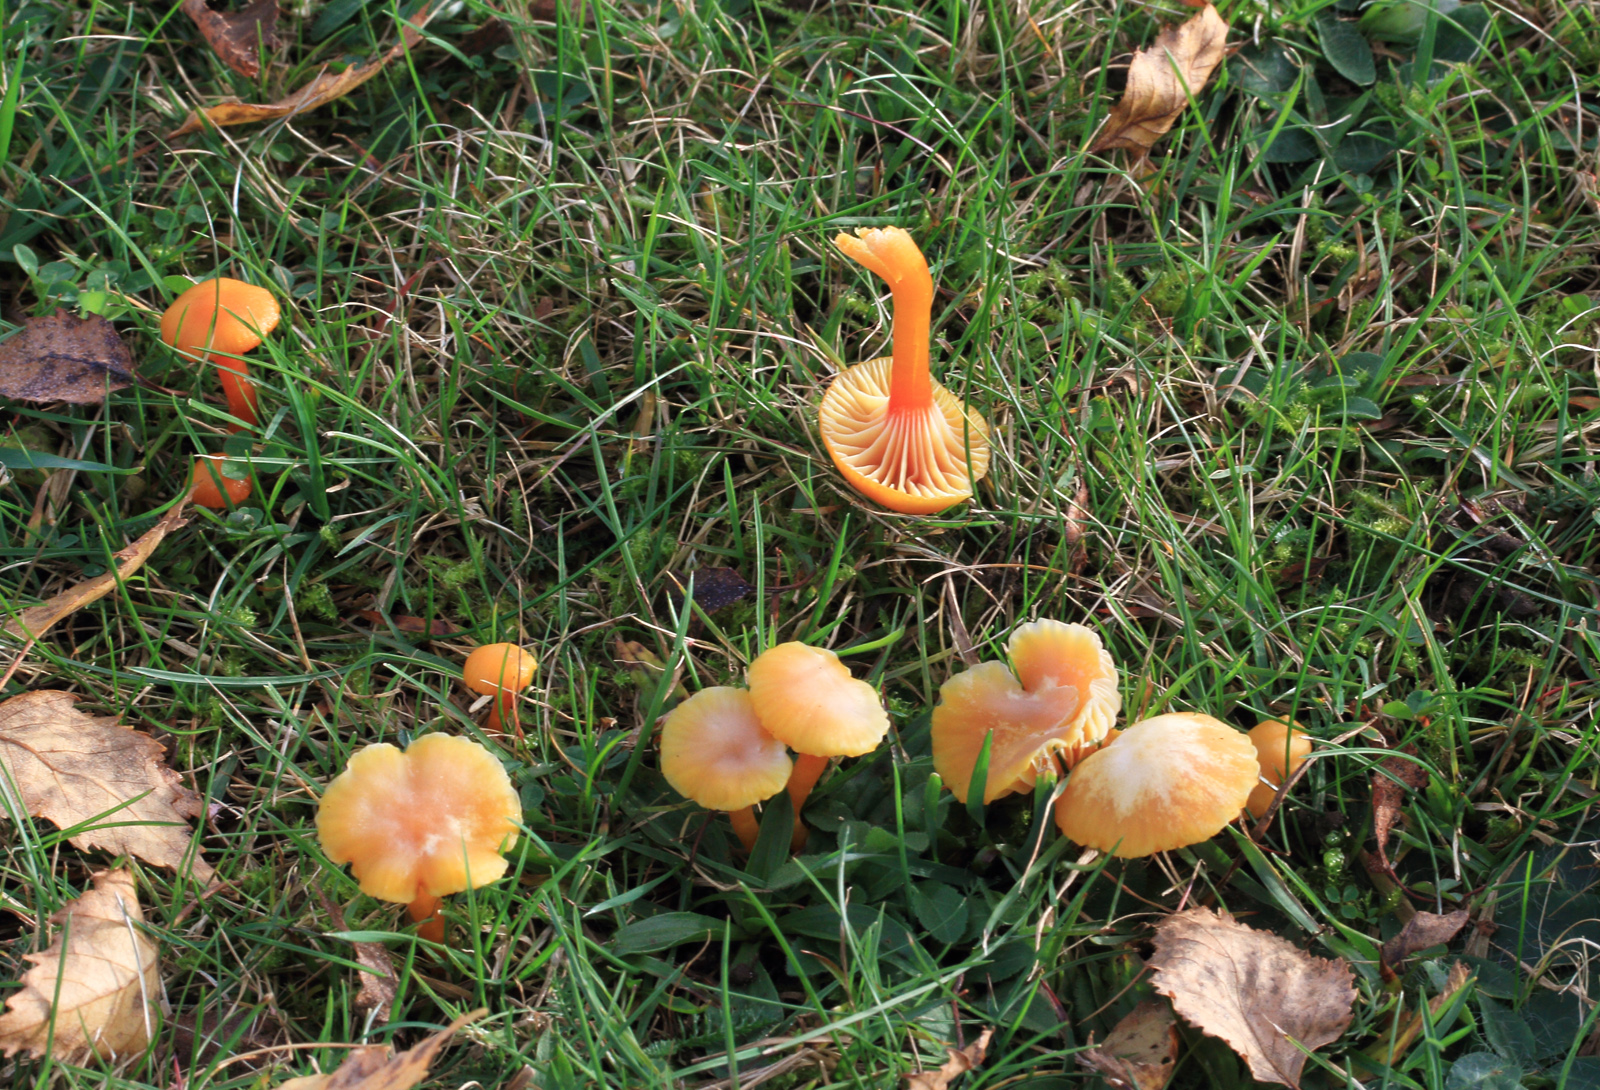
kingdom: Fungi
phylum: Basidiomycota
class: Agaricomycetes
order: Agaricales
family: Hygrophoraceae
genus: Hygrocybe
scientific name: Hygrocybe cantharellus
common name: kantarel-vokshat
